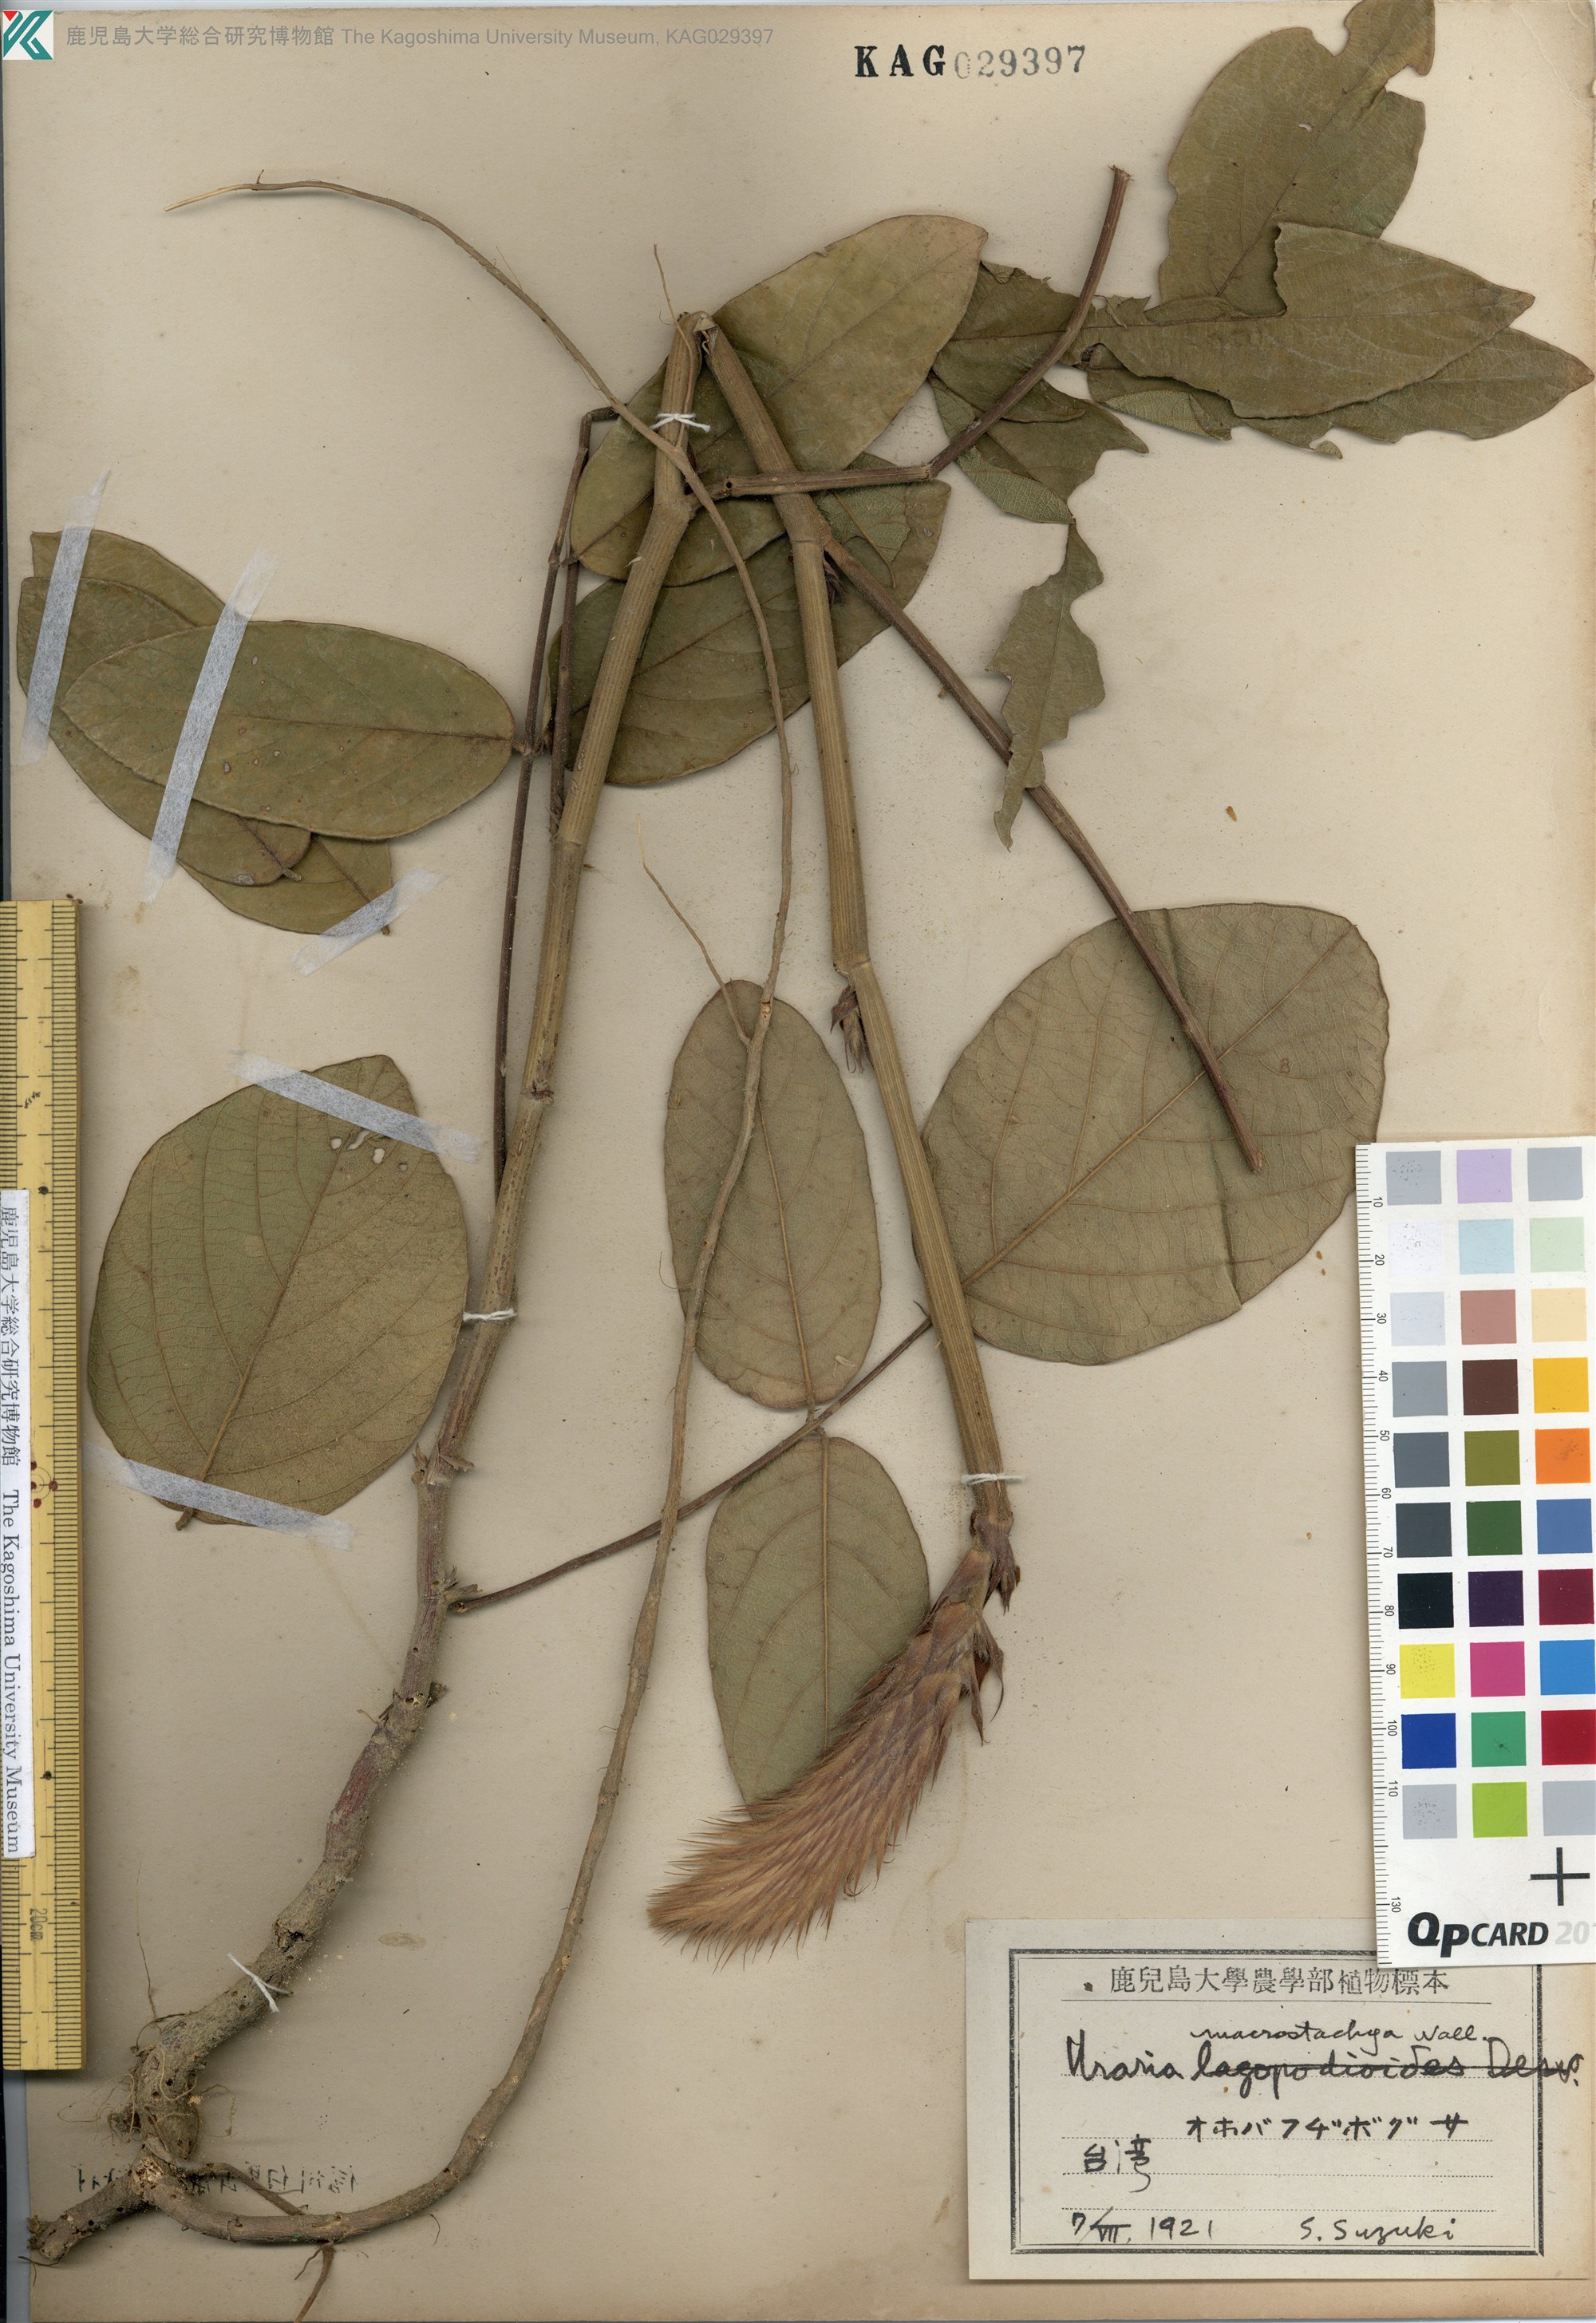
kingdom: Plantae
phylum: Tracheophyta
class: Magnoliopsida
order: Fabales
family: Fabaceae
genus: Uraria
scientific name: Uraria crinita
